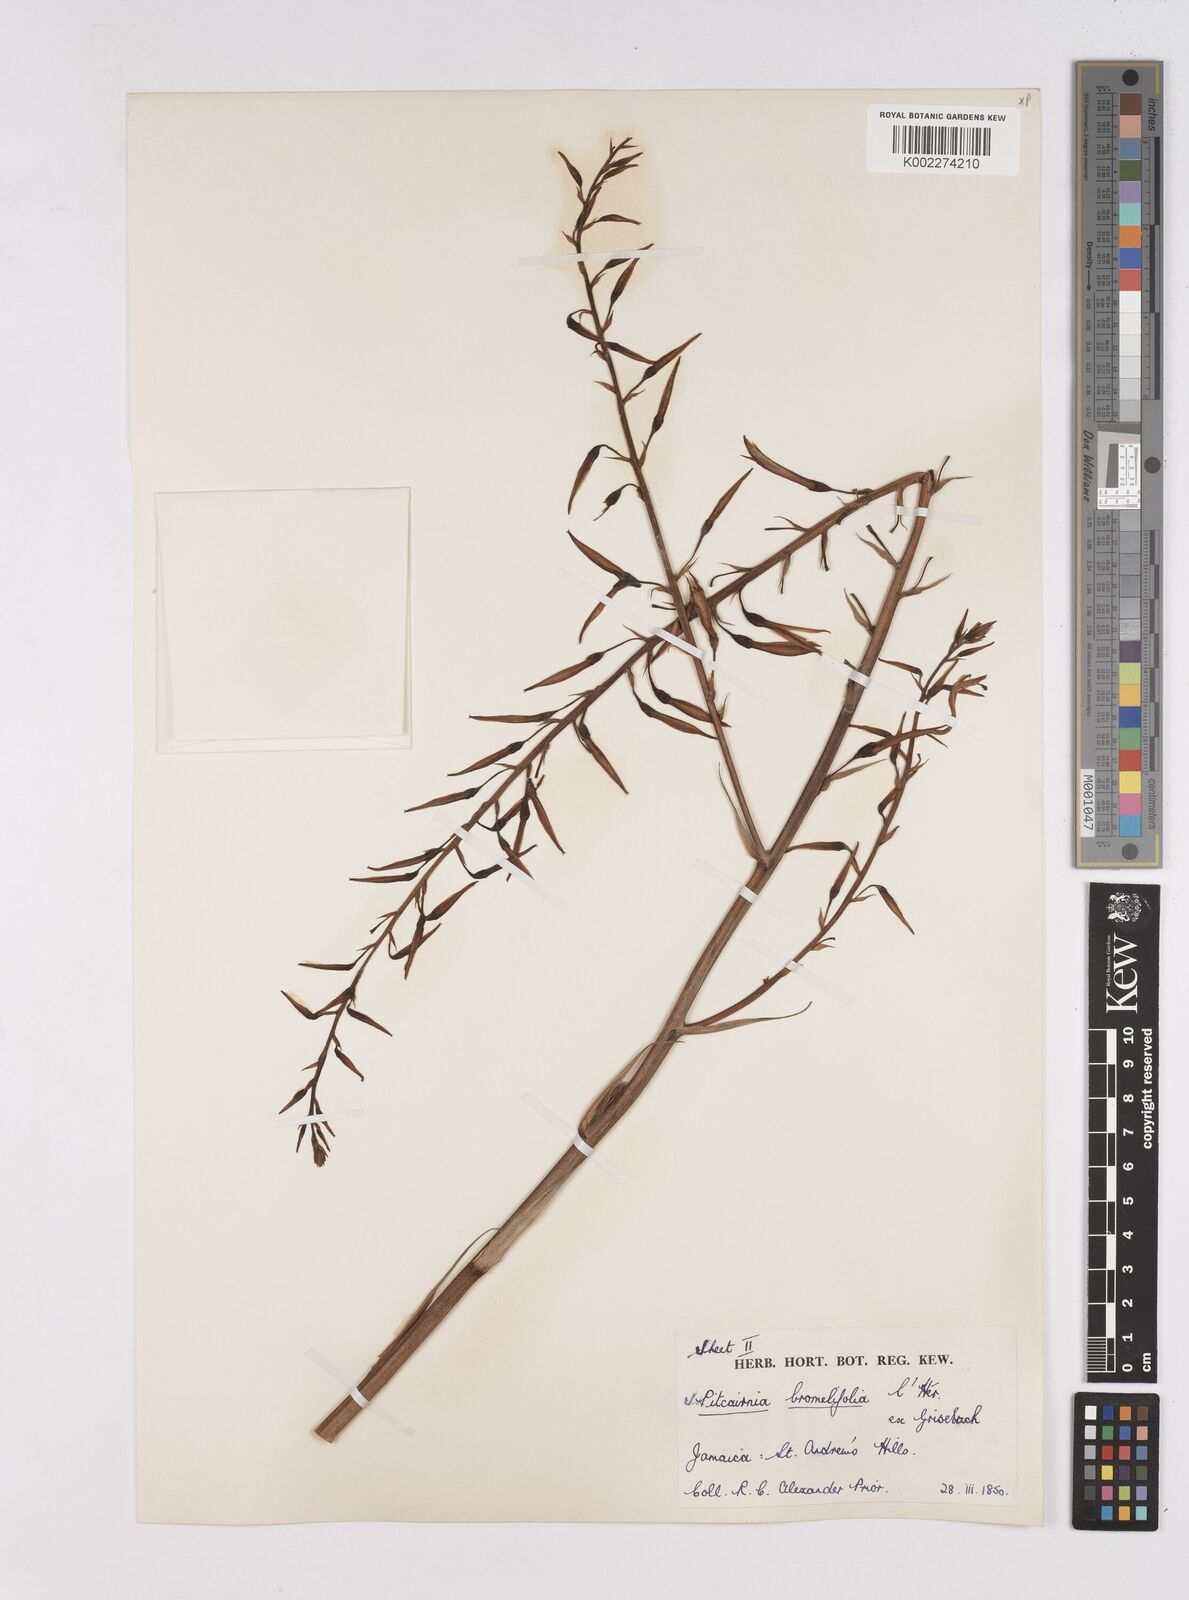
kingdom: Plantae
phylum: Tracheophyta
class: Liliopsida
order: Poales
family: Bromeliaceae
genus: Pitcairnia
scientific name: Pitcairnia bromeliifolia
